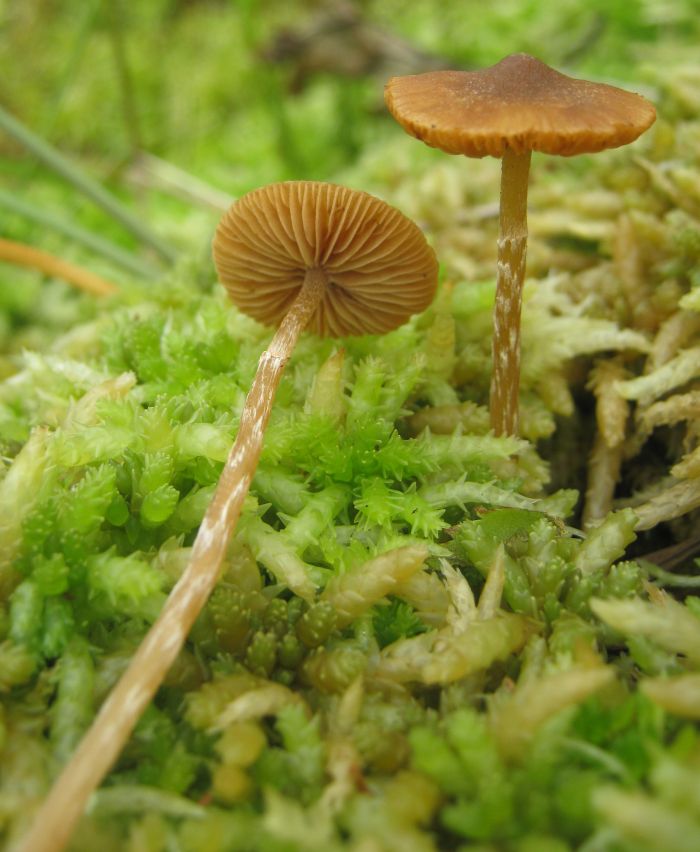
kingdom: Fungi
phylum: Basidiomycota
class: Agaricomycetes
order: Agaricales
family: Hymenogastraceae
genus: Galerina
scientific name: Galerina paludosa
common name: mose-hjelmhat
